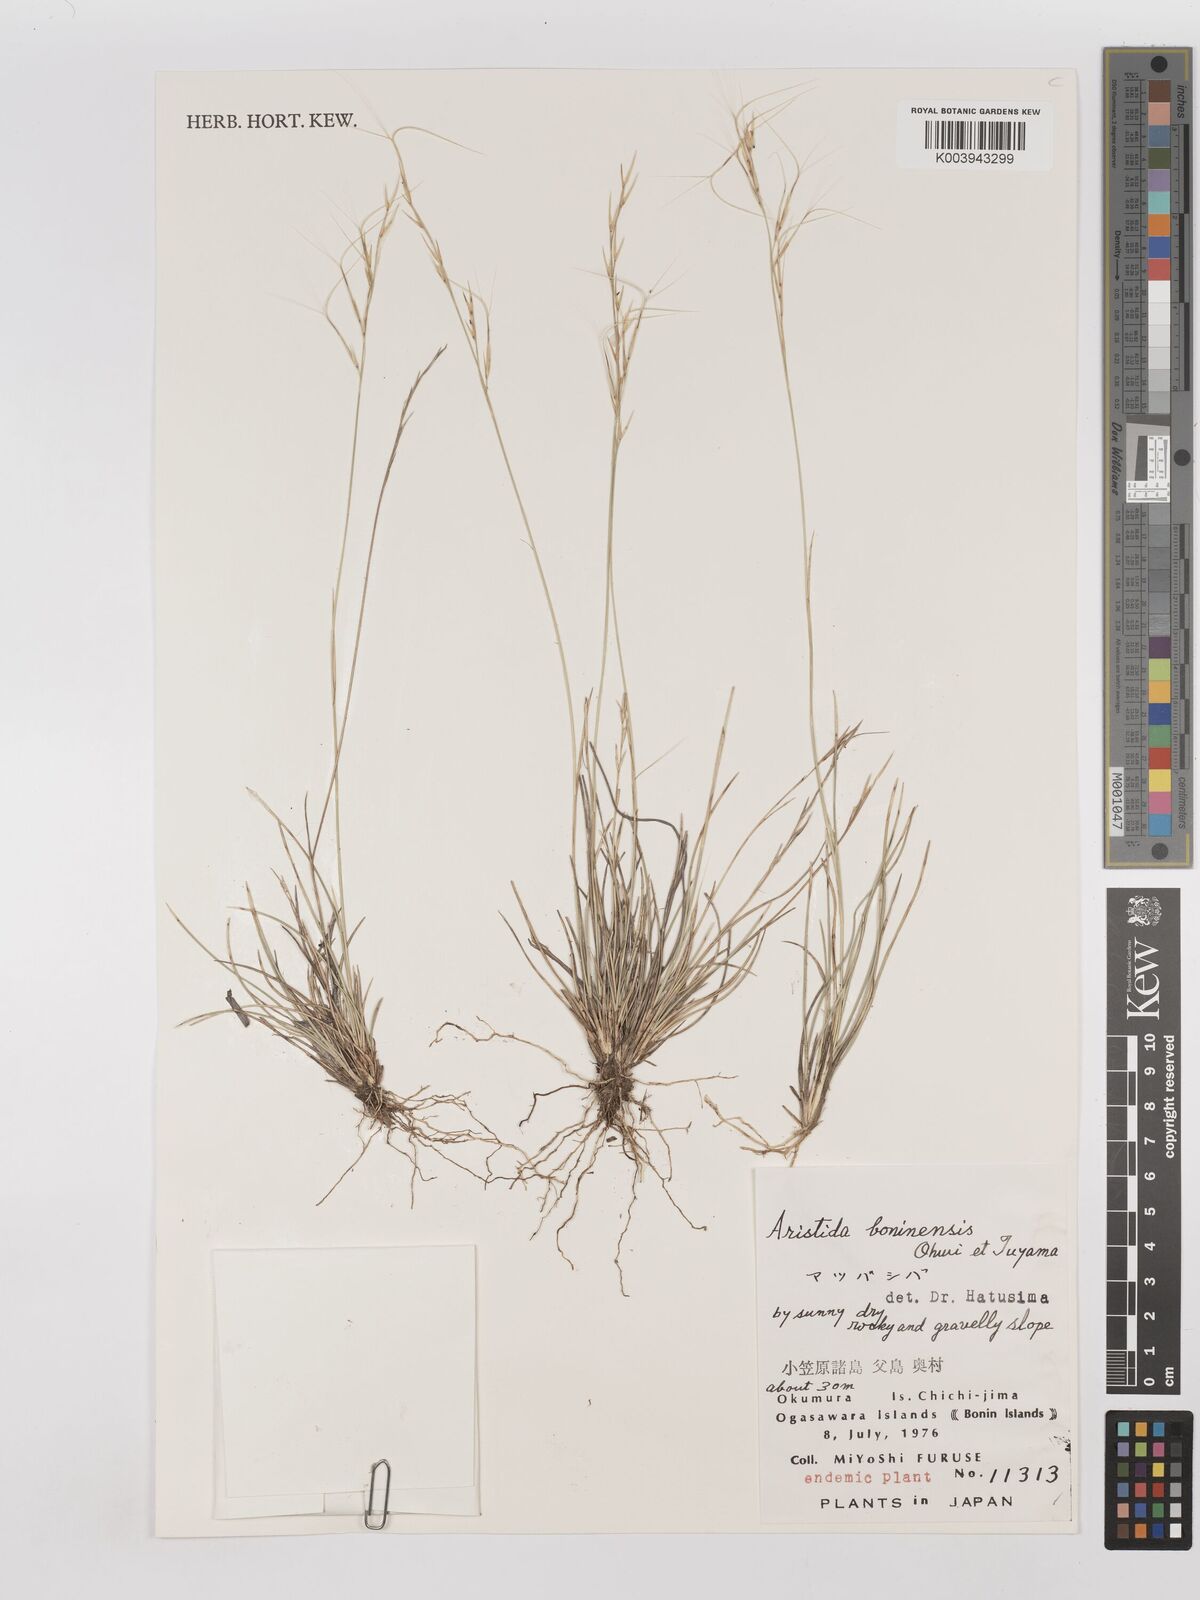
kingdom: Plantae
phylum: Tracheophyta
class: Liliopsida
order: Poales
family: Poaceae
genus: Aristida
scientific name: Aristida boninensis
